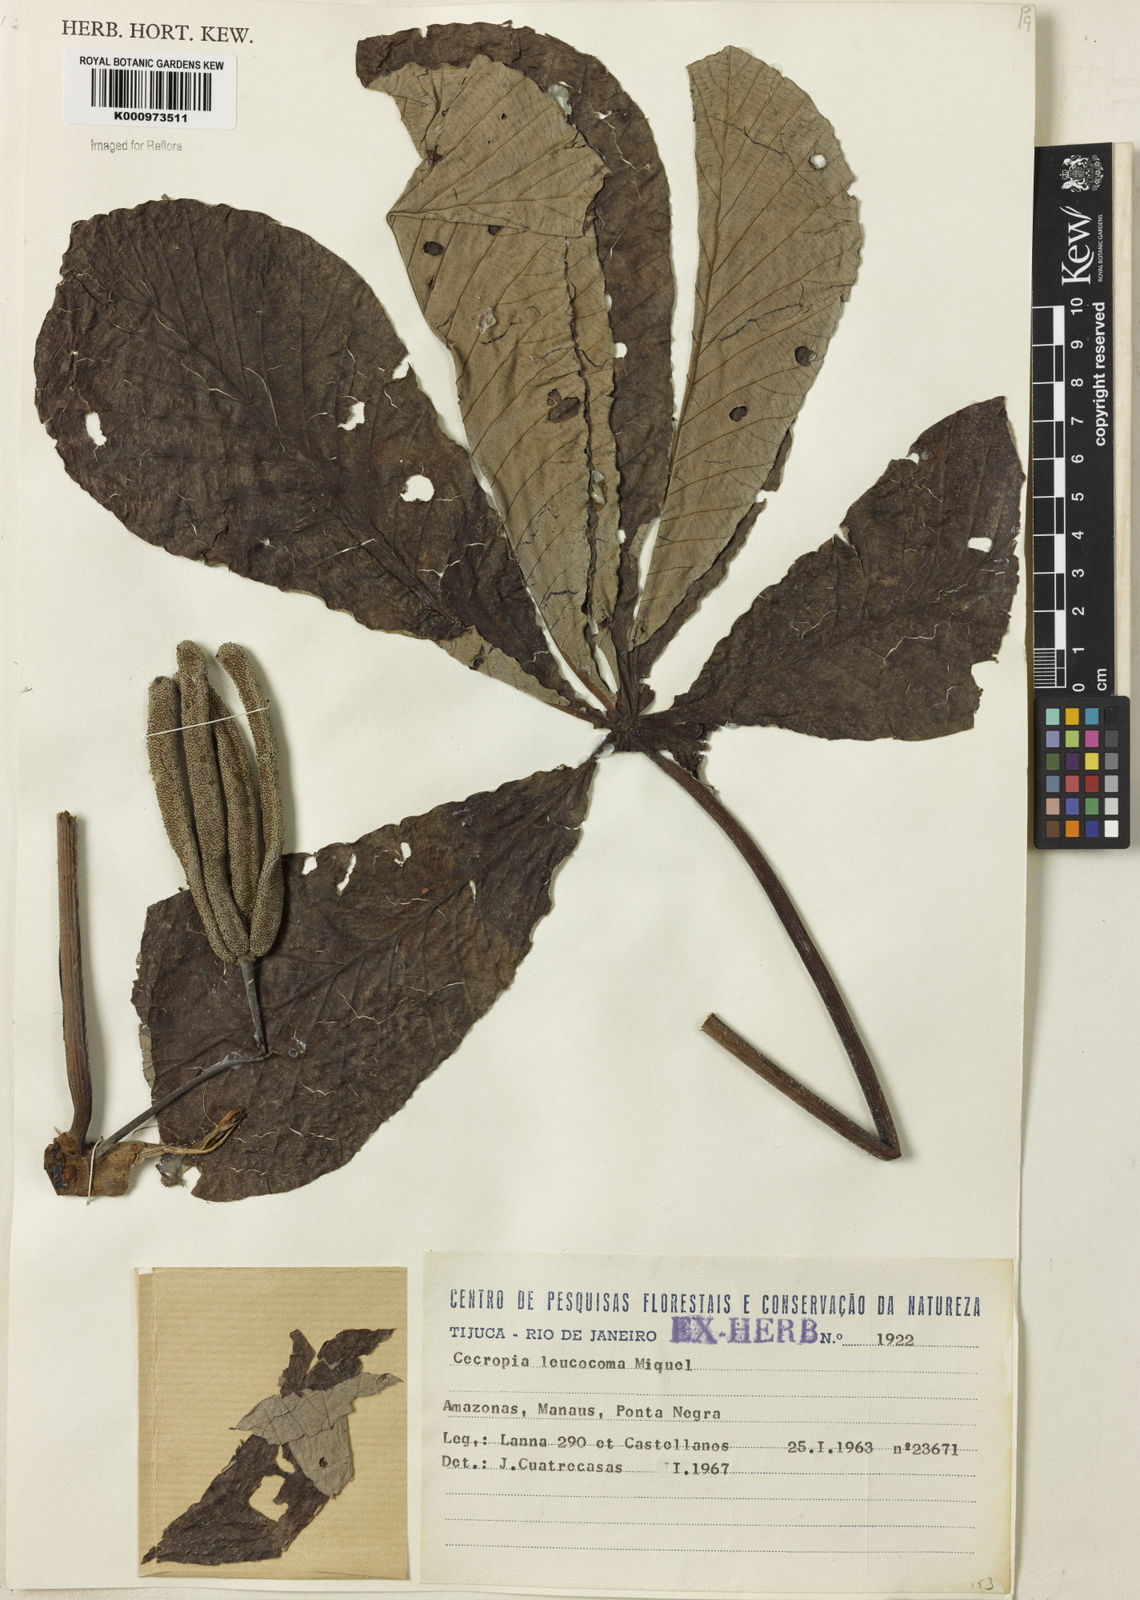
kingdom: Plantae
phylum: Tracheophyta
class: Magnoliopsida
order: Rosales
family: Urticaceae
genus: Cecropia
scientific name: Cecropia concolor
